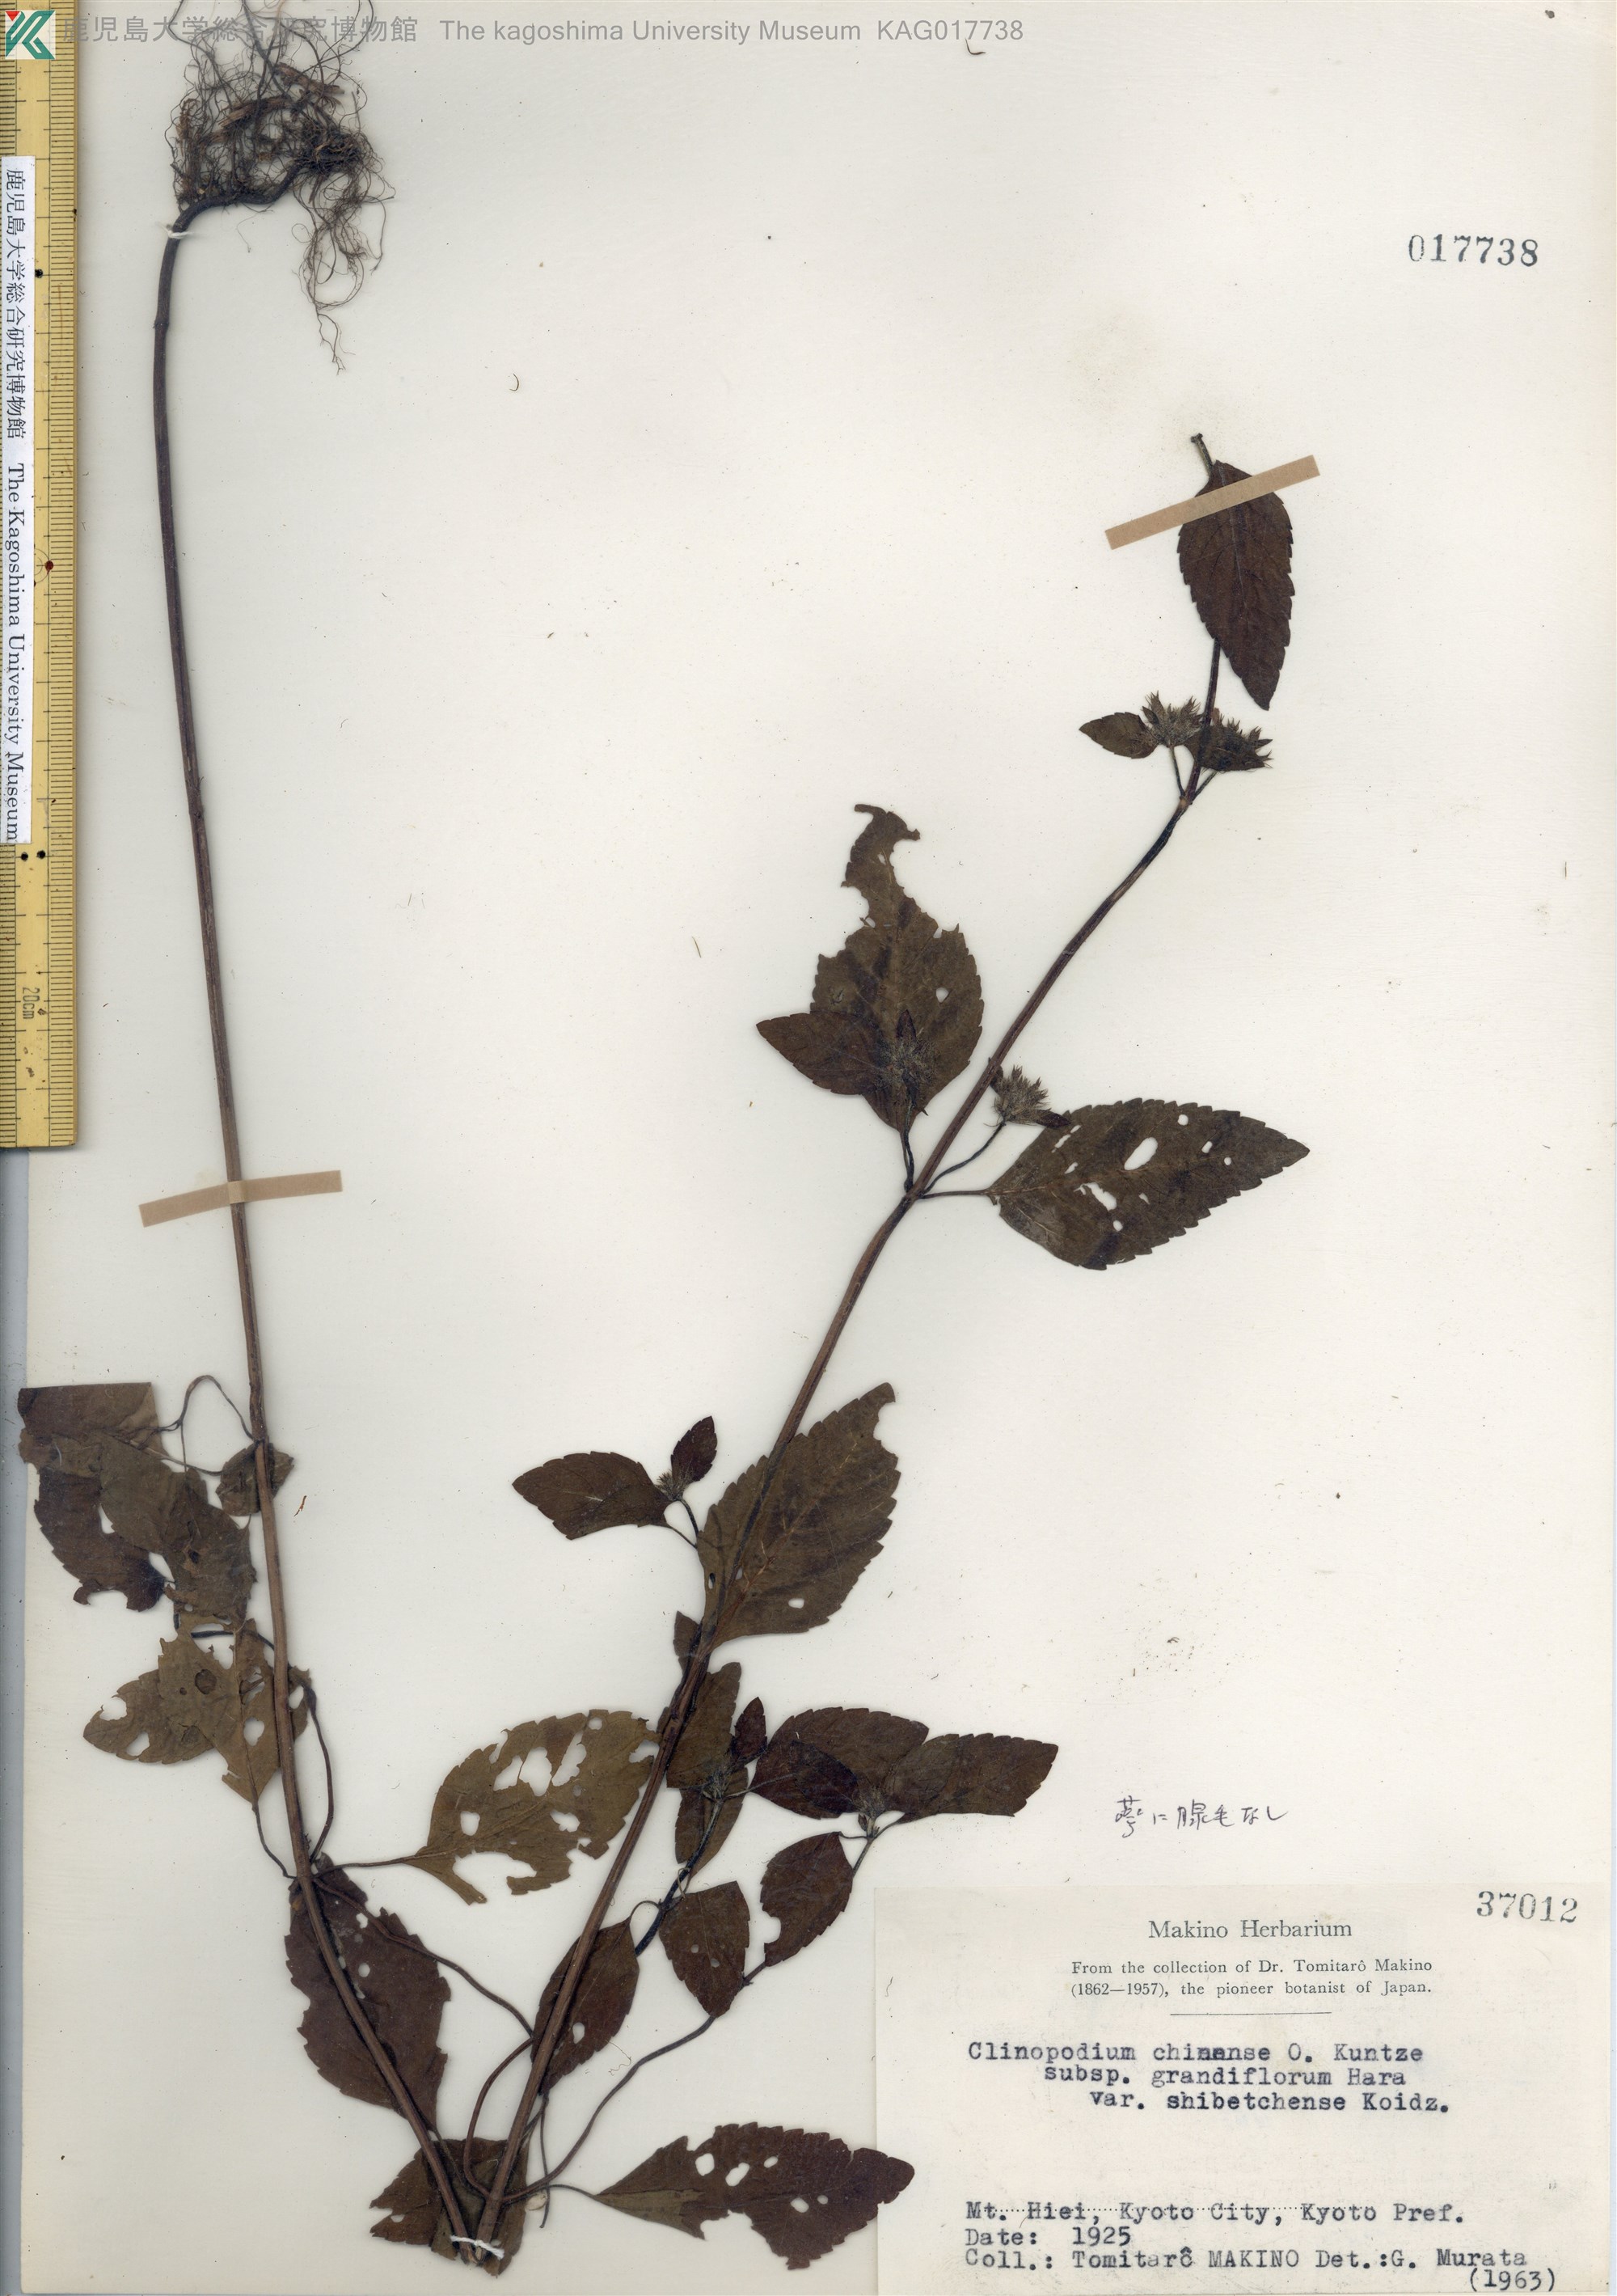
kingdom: Plantae
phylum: Tracheophyta
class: Magnoliopsida
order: Lamiales
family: Lamiaceae
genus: Clinopodium
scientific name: Clinopodium multicaule
